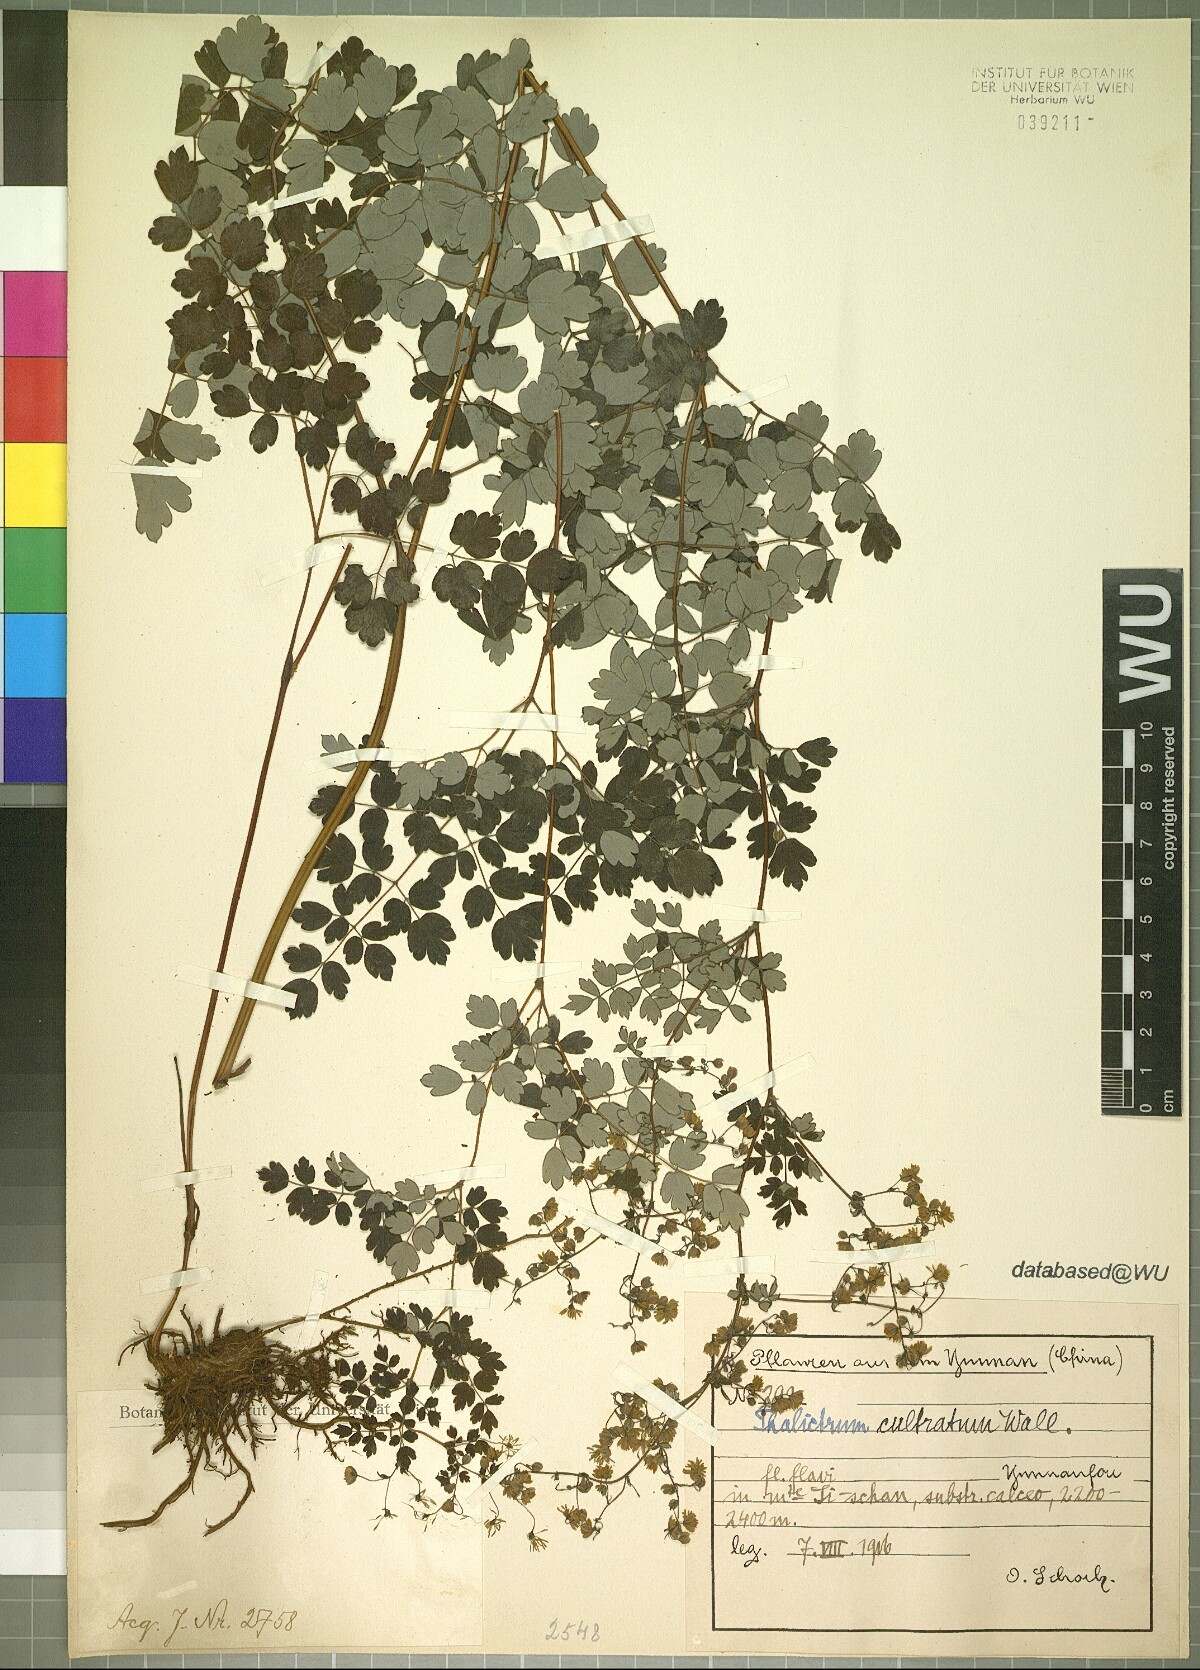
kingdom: Plantae
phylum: Tracheophyta
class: Magnoliopsida
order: Ranunculales
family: Ranunculaceae
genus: Thalictrum
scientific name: Thalictrum cultratum
